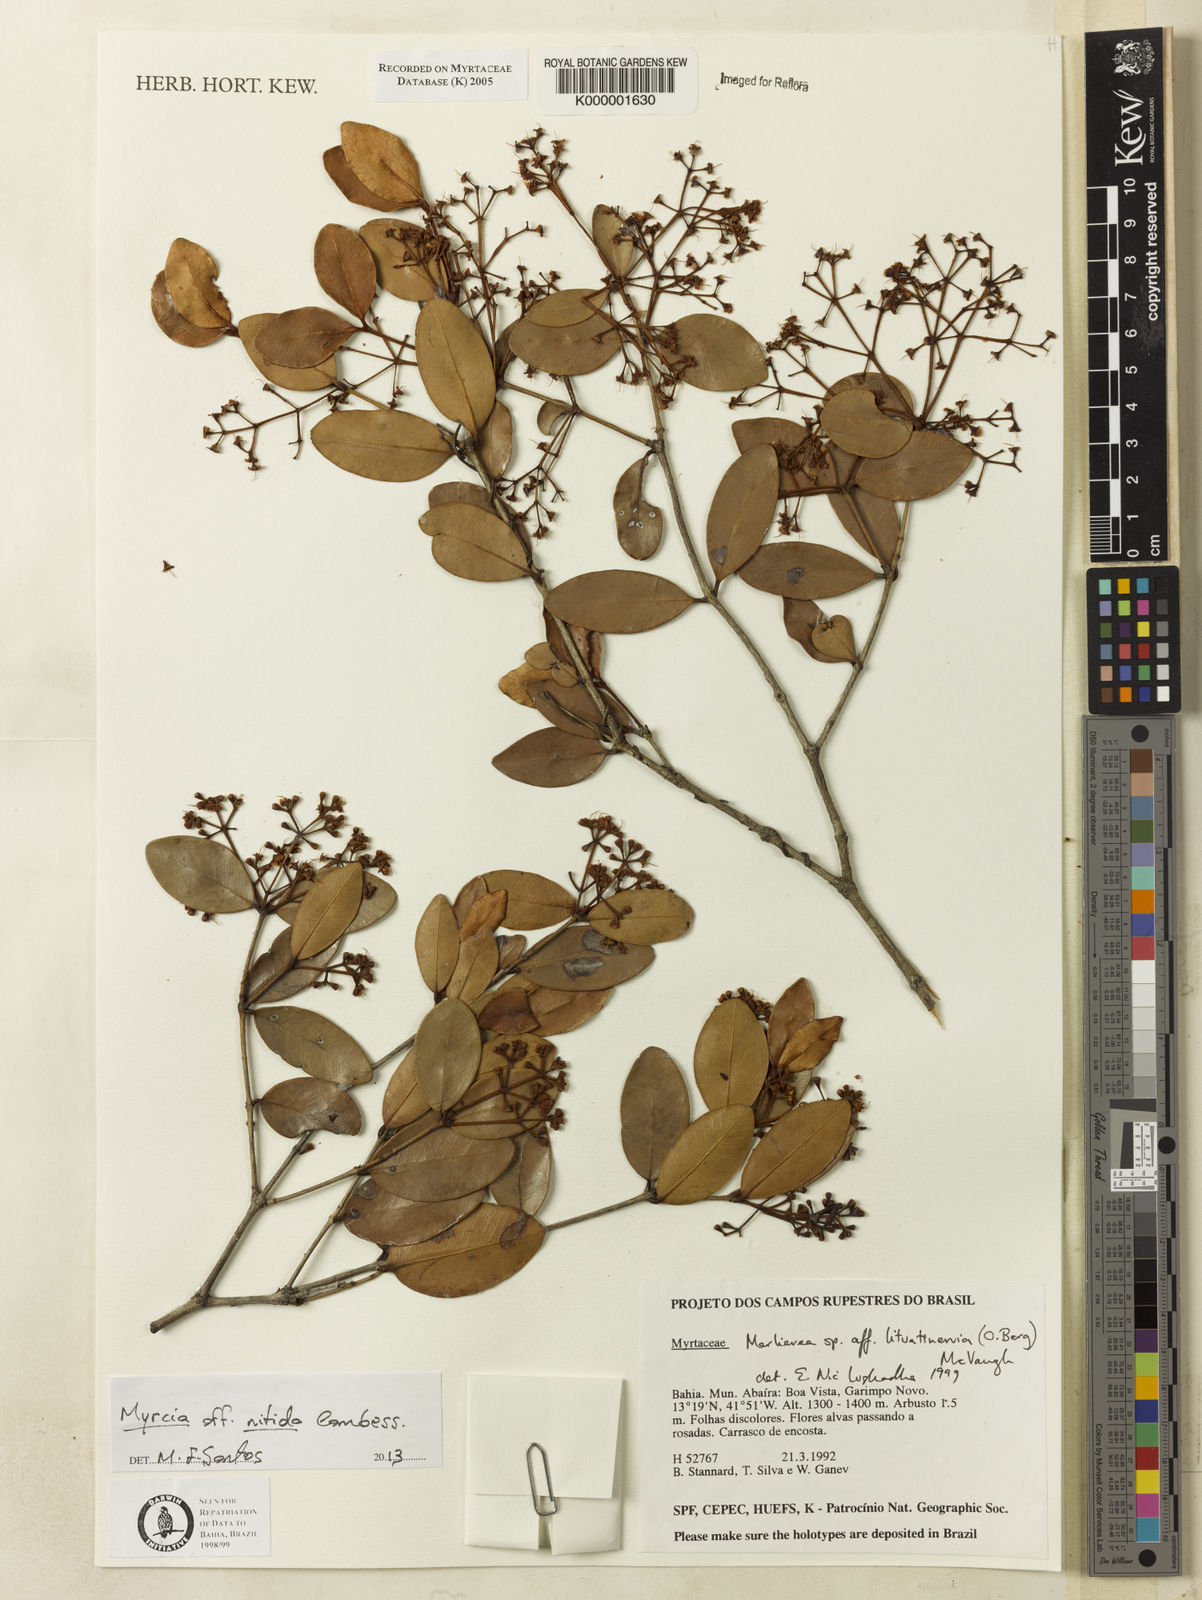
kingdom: Plantae
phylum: Tracheophyta
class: Magnoliopsida
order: Myrtales
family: Myrtaceae
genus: Myrcia
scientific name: Myrcia lituatinervia
